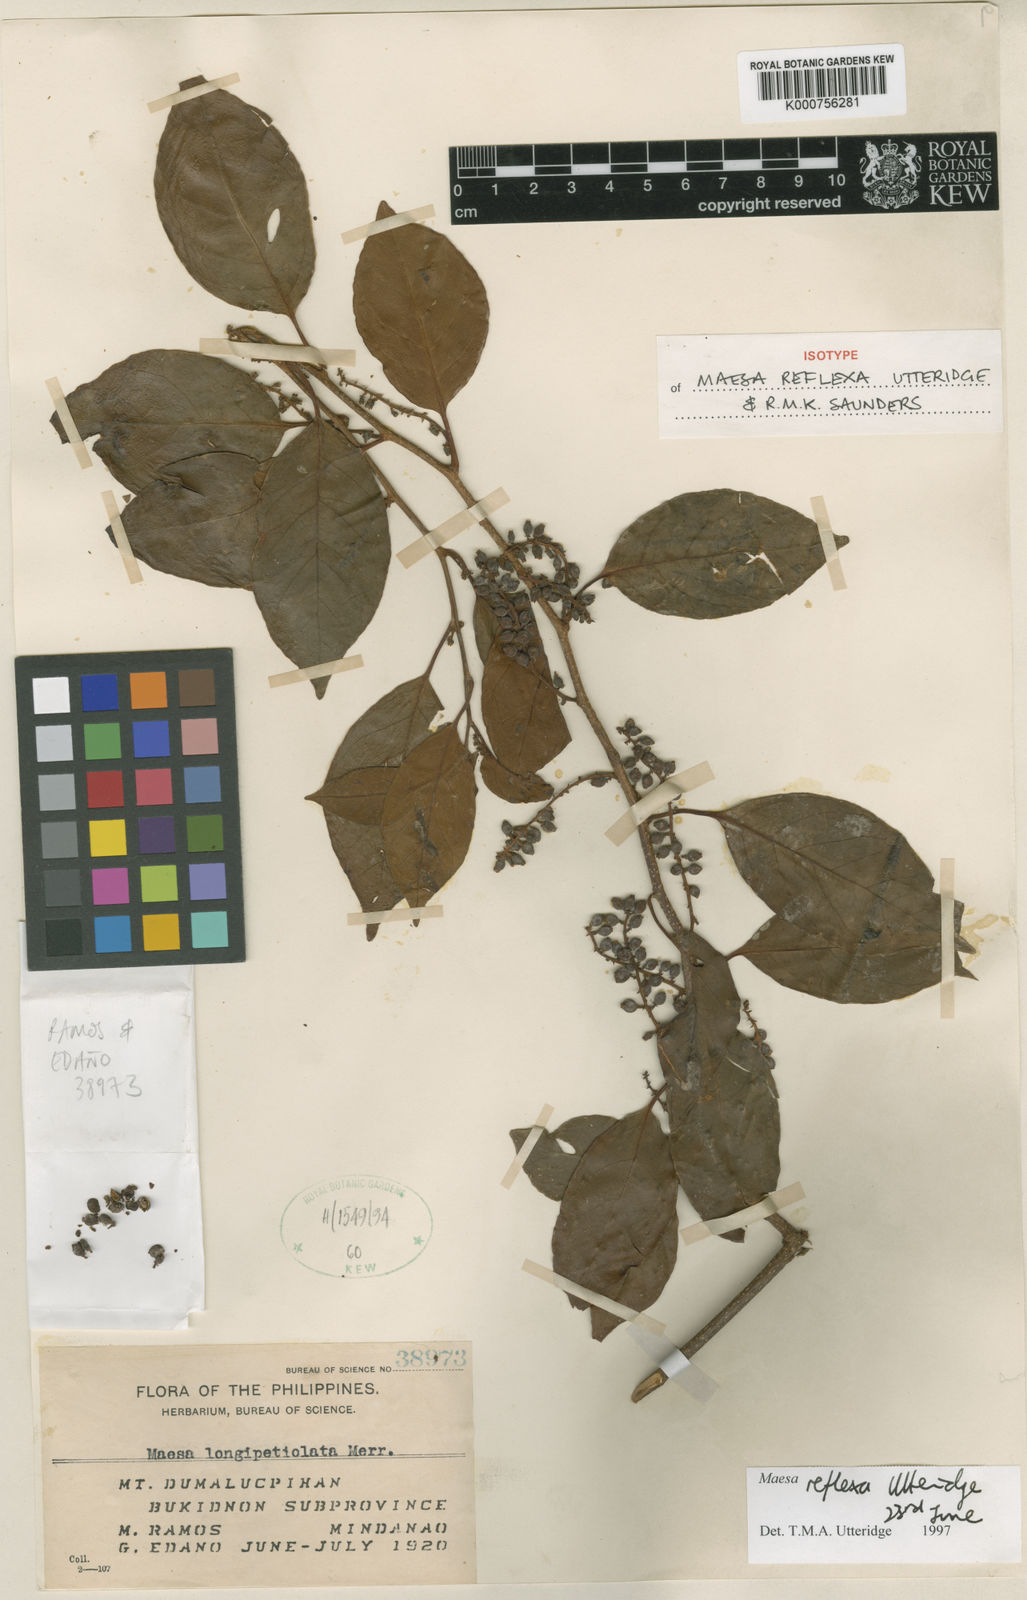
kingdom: Plantae
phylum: Tracheophyta
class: Magnoliopsida
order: Ericales
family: Primulaceae
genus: Maesa
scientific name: Maesa reflexa
